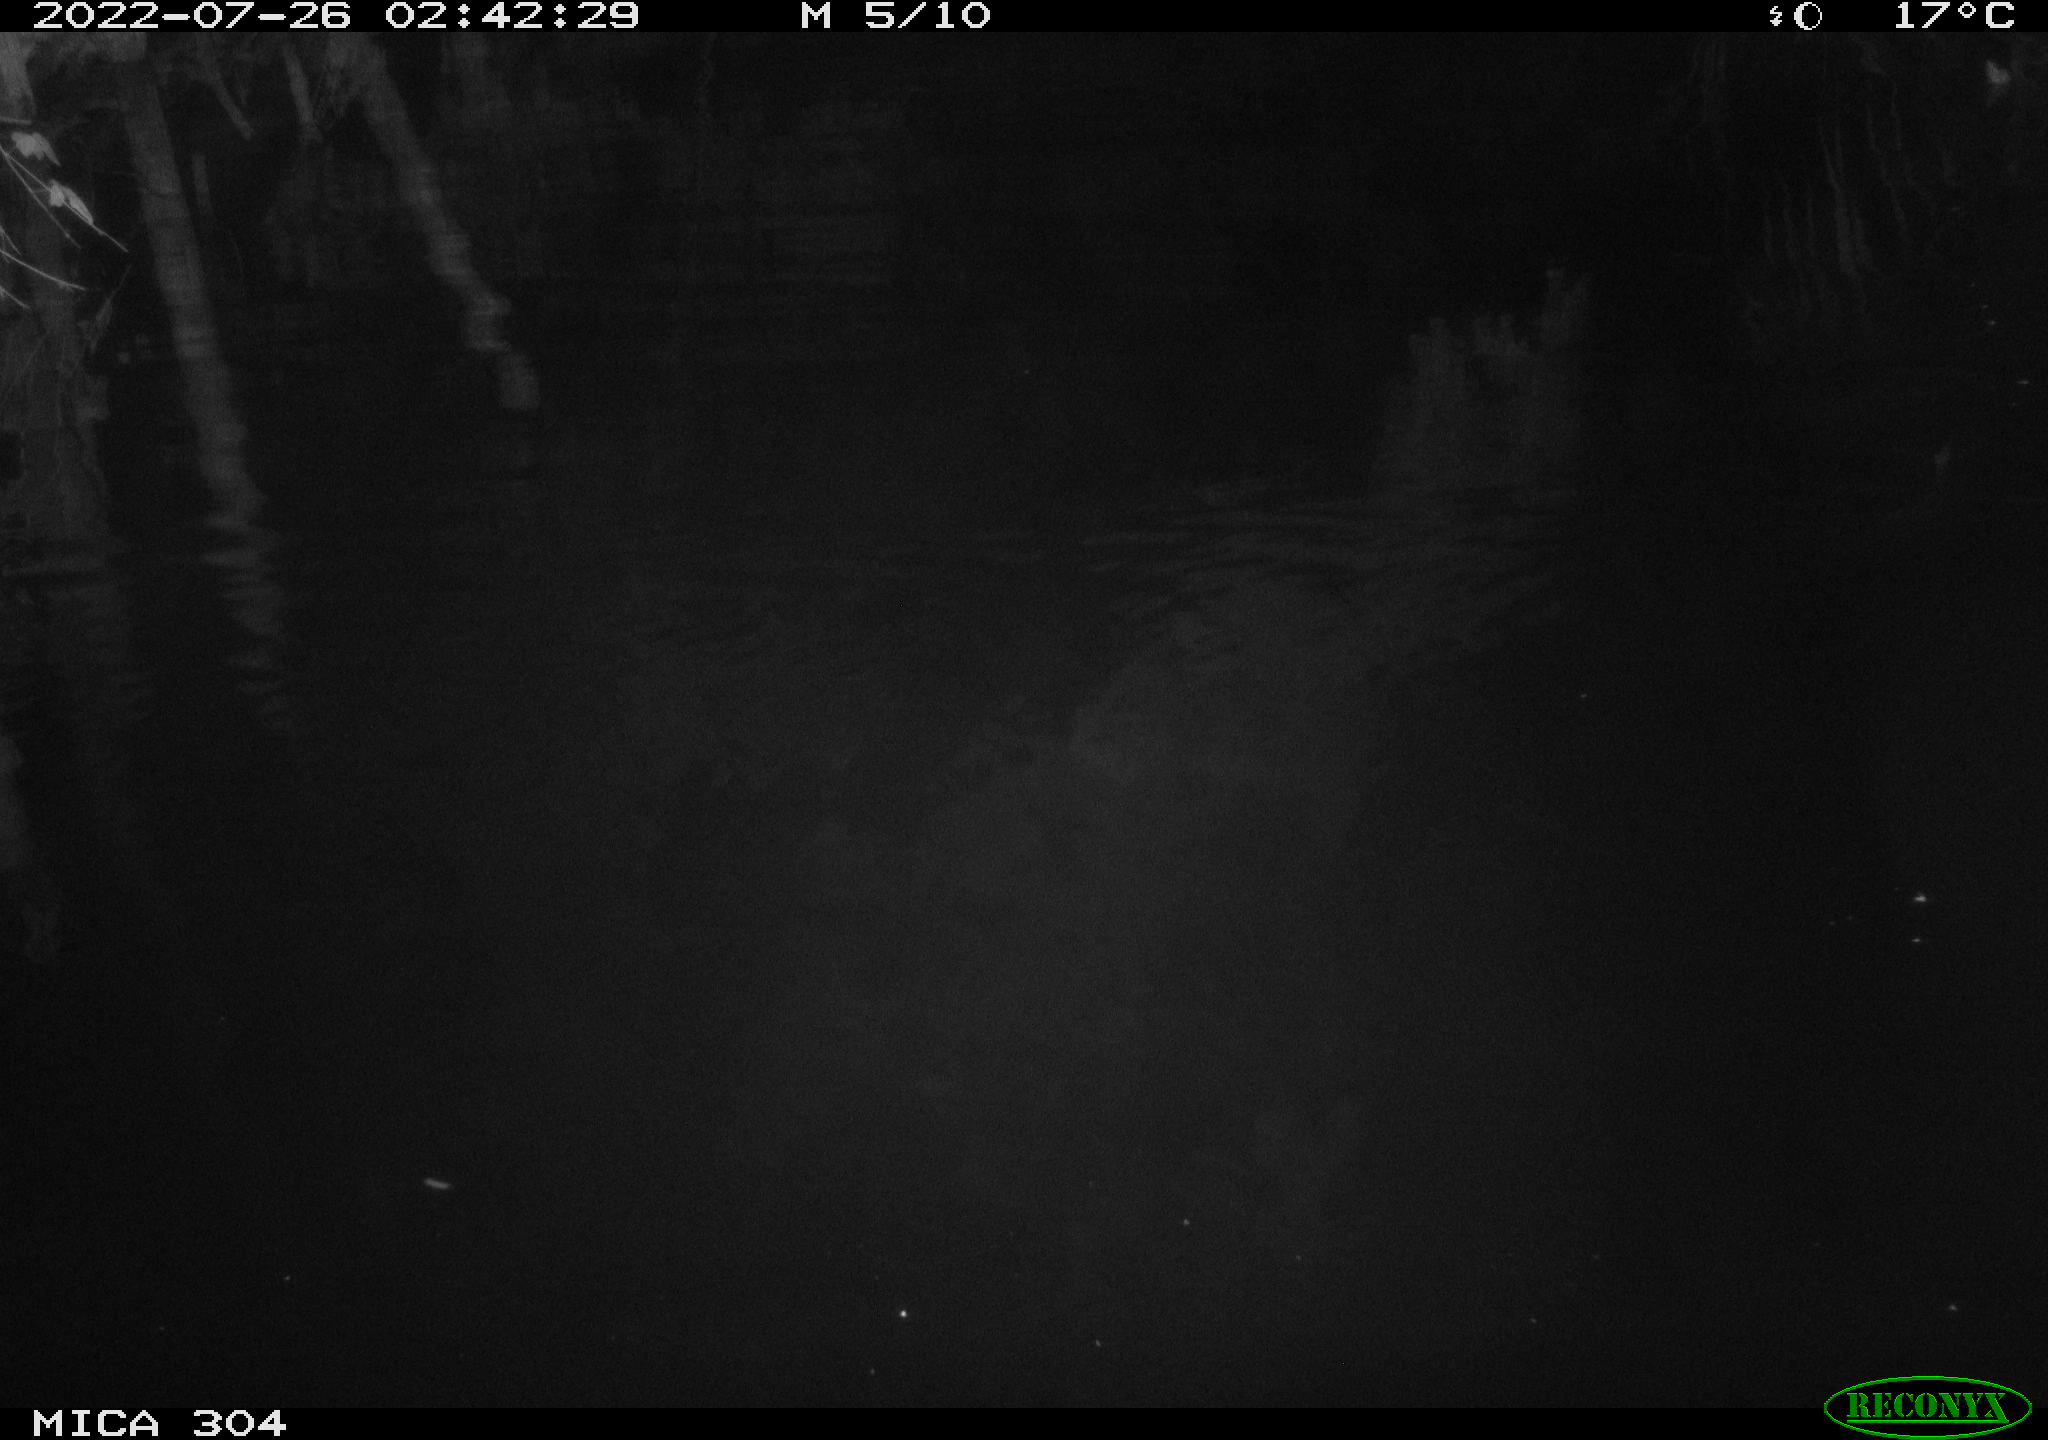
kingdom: Animalia
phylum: Chordata
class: Mammalia
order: Rodentia
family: Muridae
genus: Rattus
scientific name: Rattus norvegicus
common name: Brown rat
